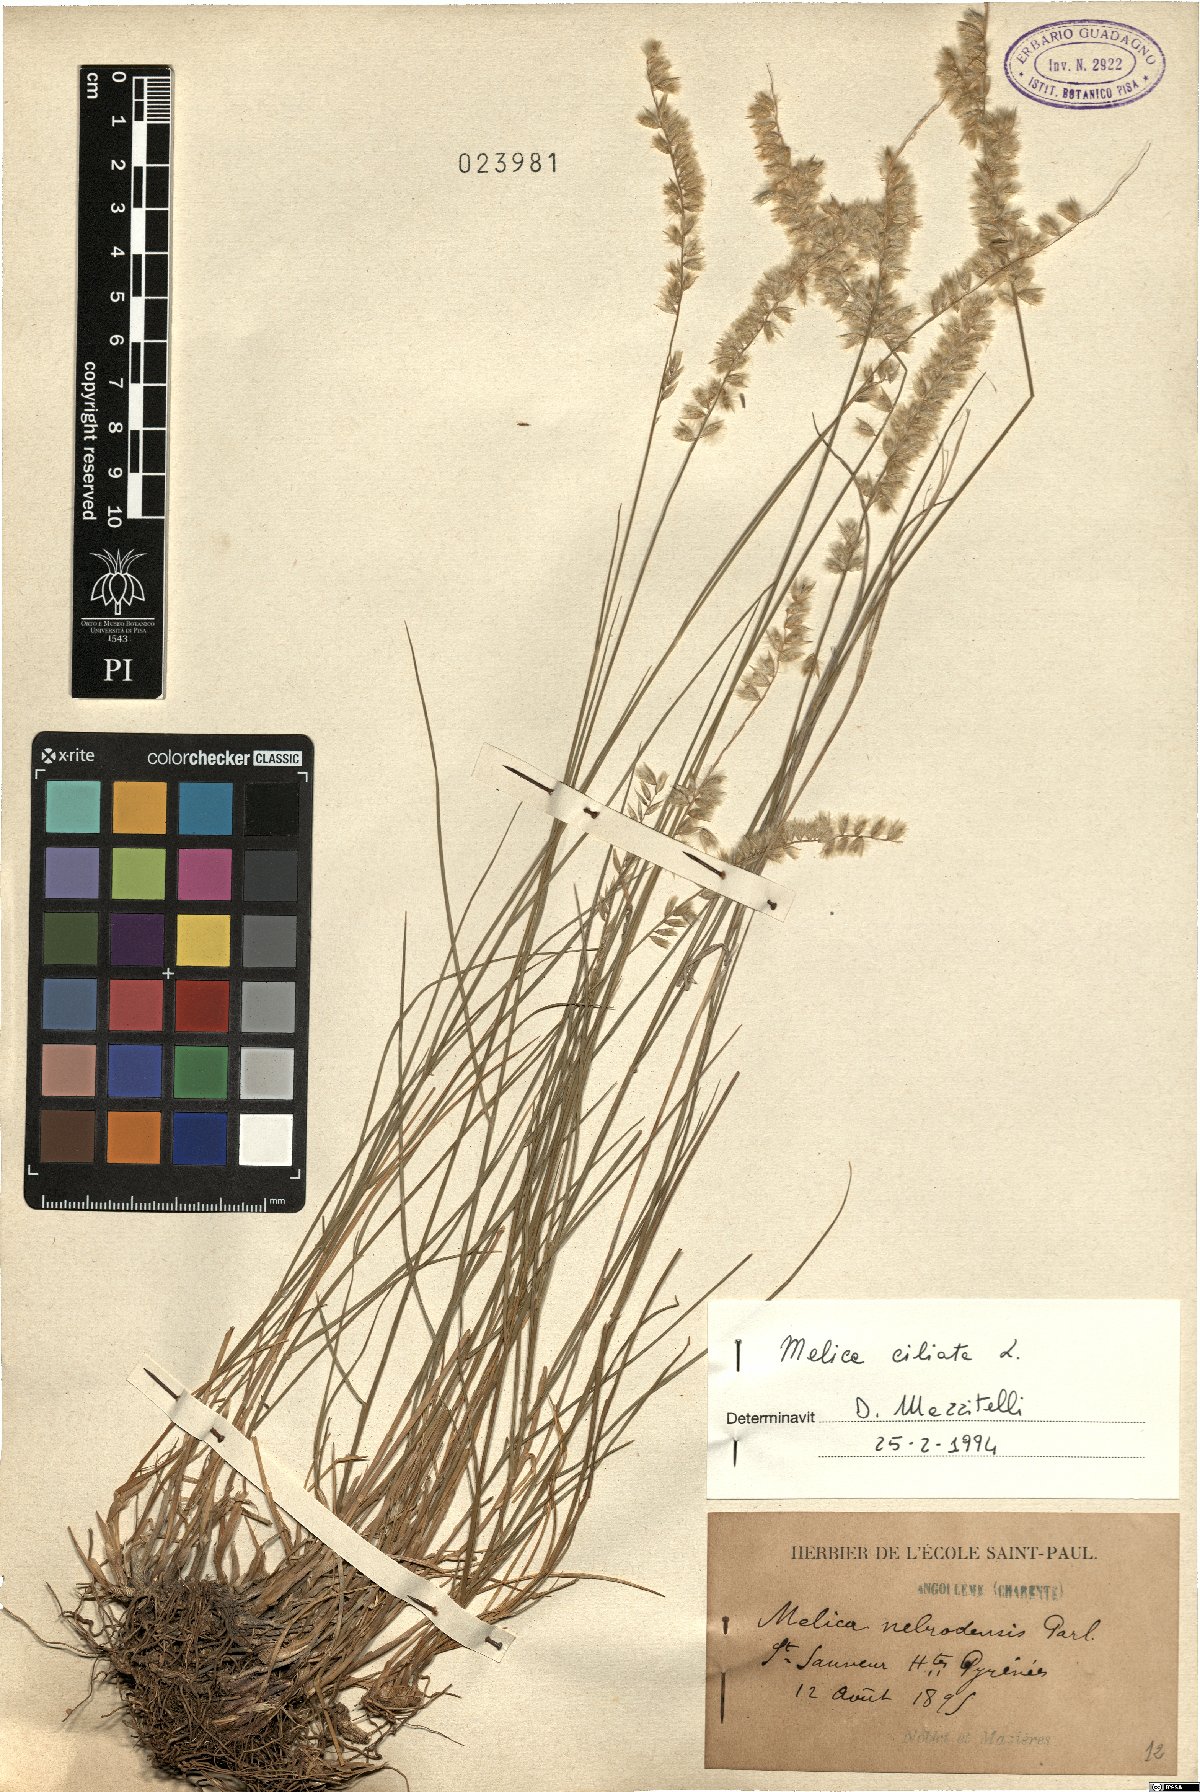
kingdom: Plantae
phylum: Tracheophyta
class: Liliopsida
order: Poales
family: Poaceae
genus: Melica
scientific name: Melica ciliata
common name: Hairy melicgrass
